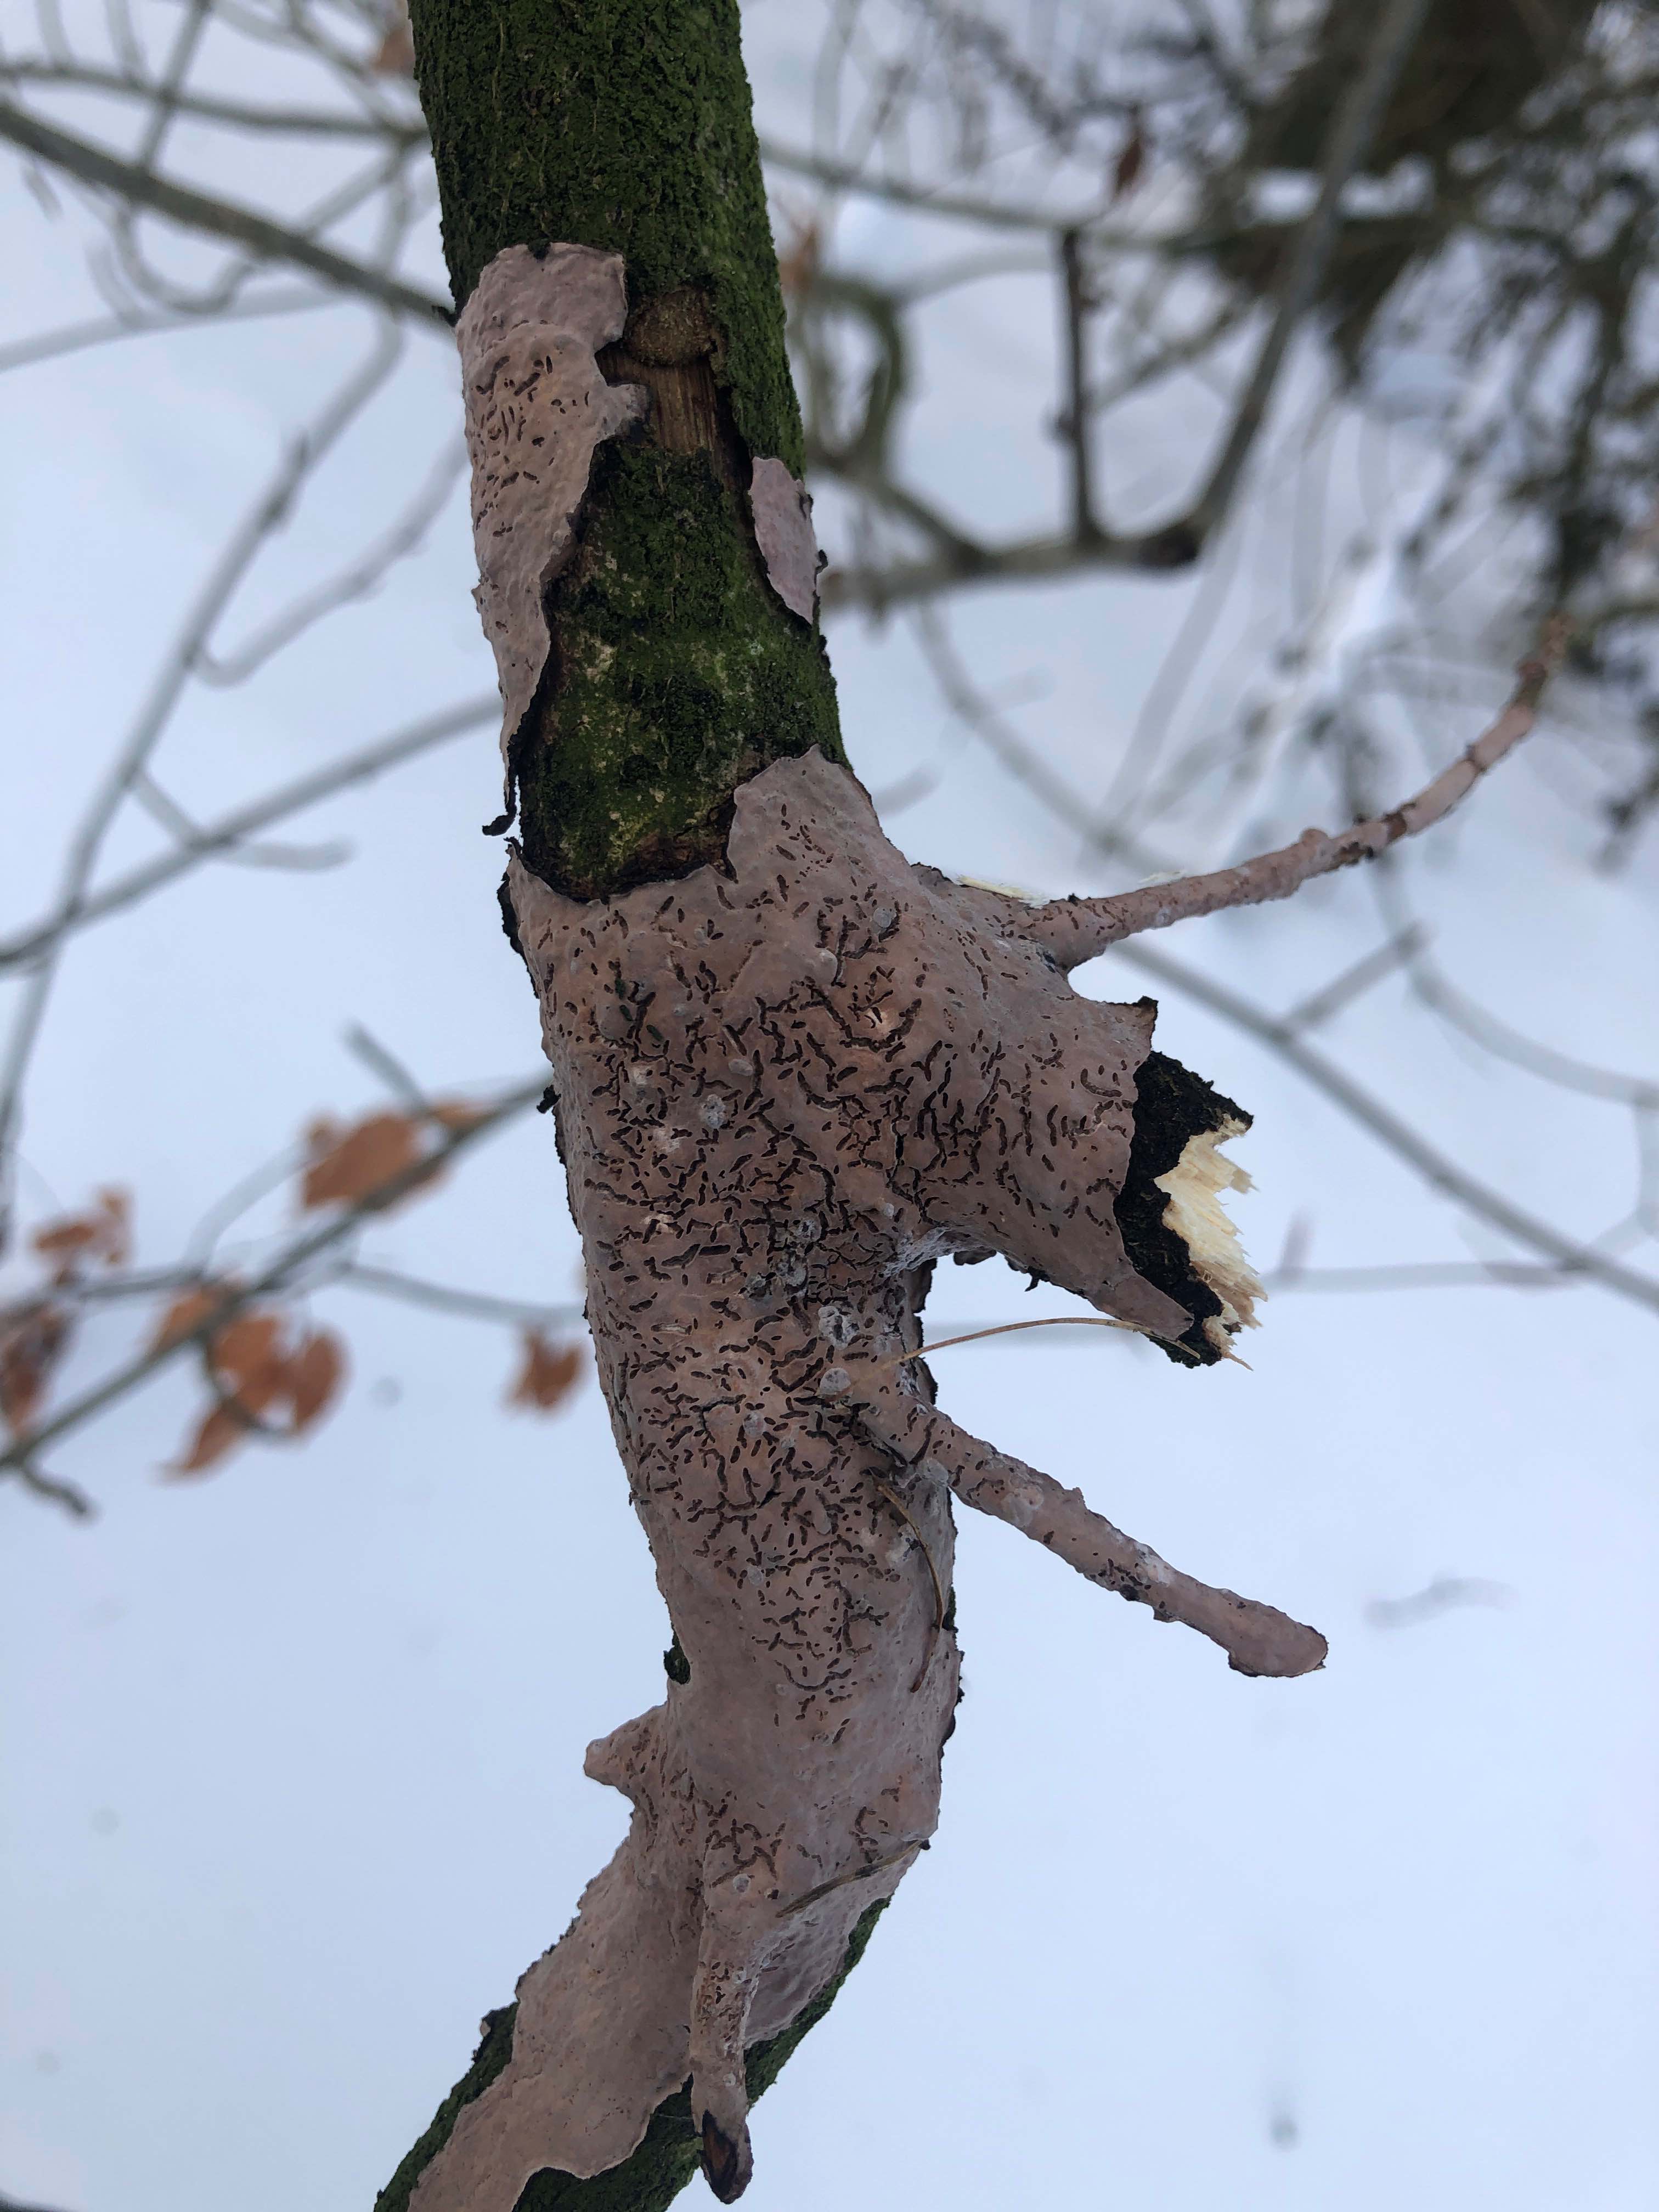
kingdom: Fungi
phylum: Basidiomycota
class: Agaricomycetes
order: Russulales
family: Peniophoraceae
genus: Peniophora
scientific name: Peniophora quercina
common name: ege-voksskind
